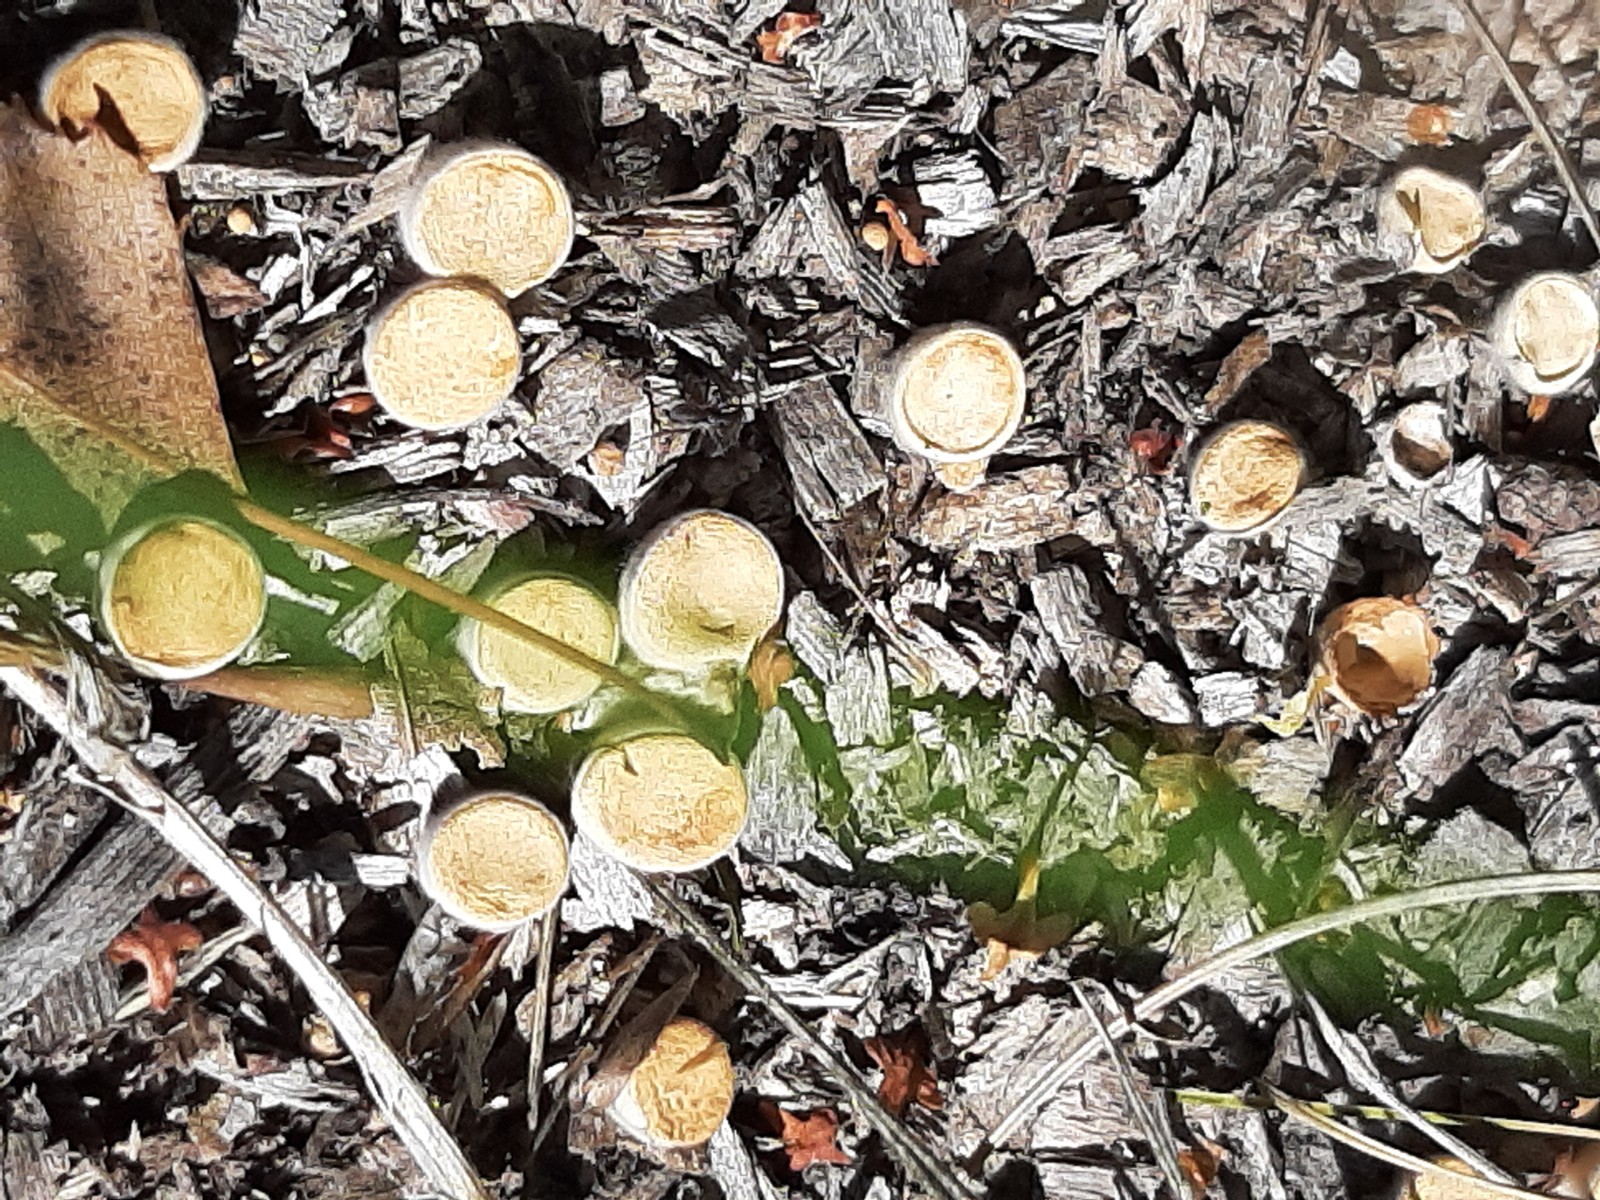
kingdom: Fungi
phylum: Basidiomycota
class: Agaricomycetes
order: Agaricales
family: Nidulariaceae
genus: Crucibulum
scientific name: Crucibulum crucibuliforme
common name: krukkesvamp
